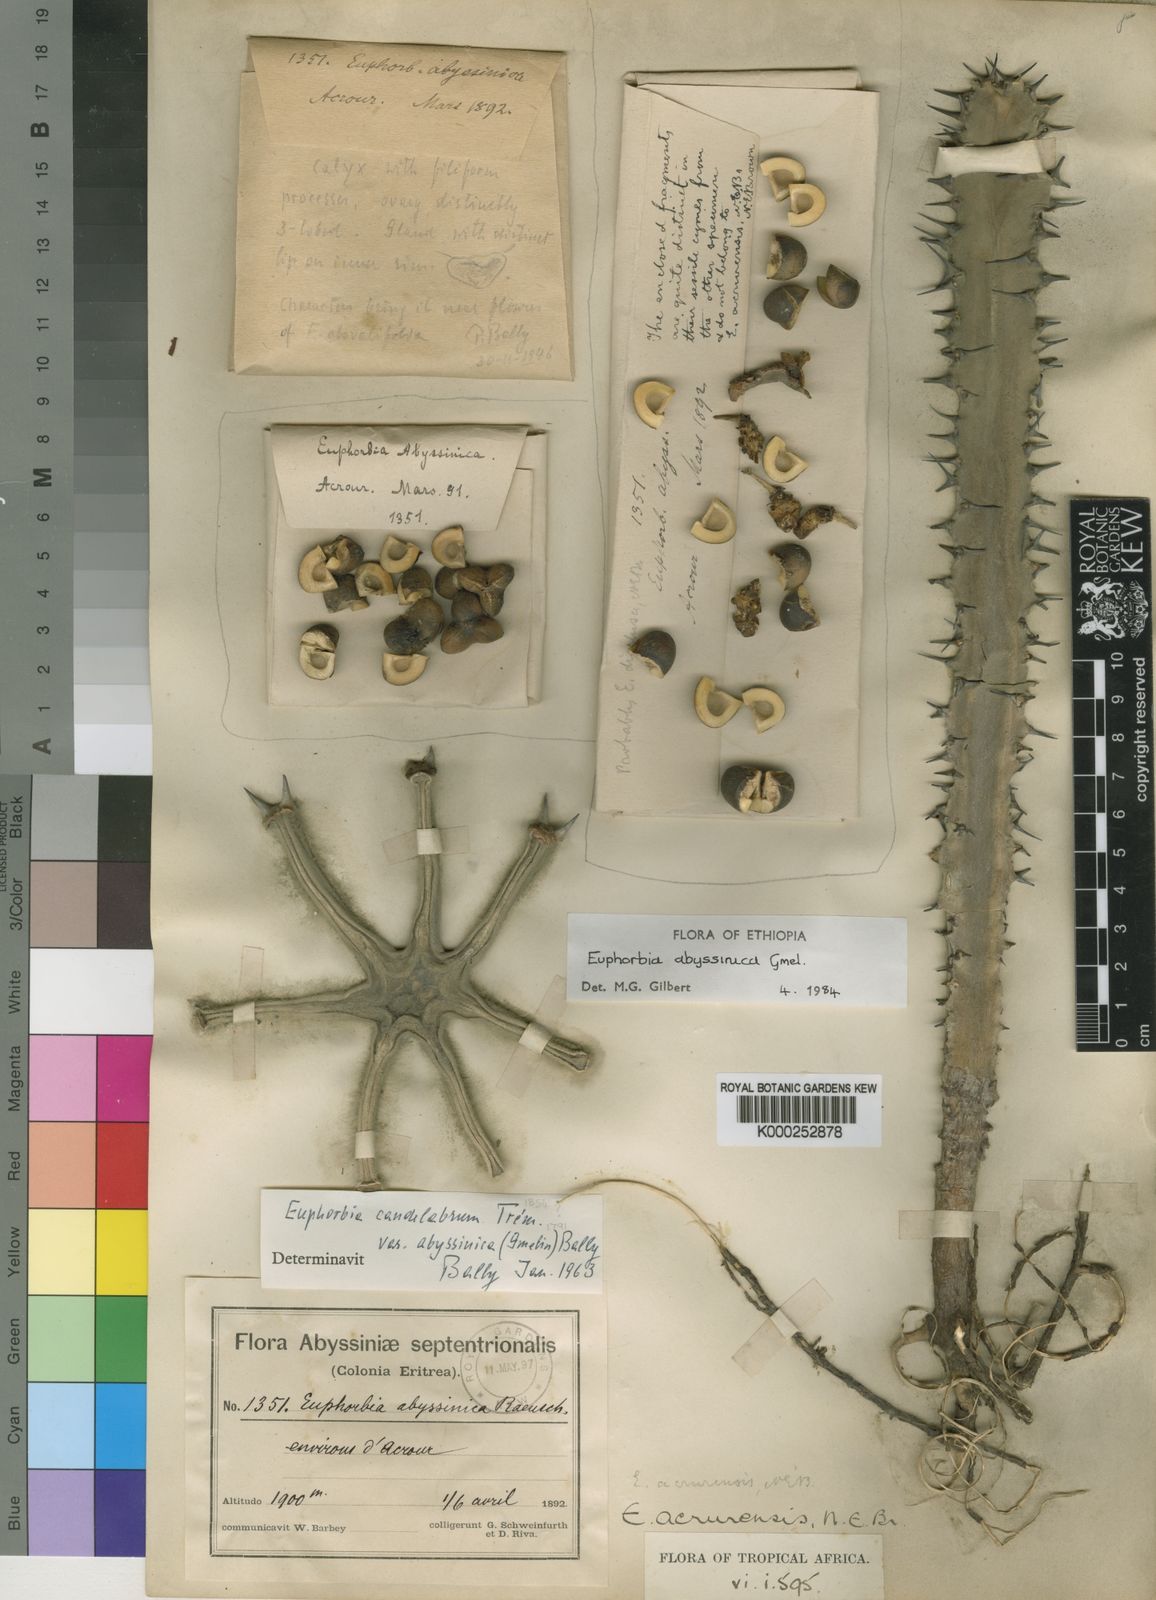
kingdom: Plantae
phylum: Tracheophyta
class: Magnoliopsida
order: Malpighiales
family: Euphorbiaceae
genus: Euphorbia
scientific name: Euphorbia abyssinica
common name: Abyssinian spurge
